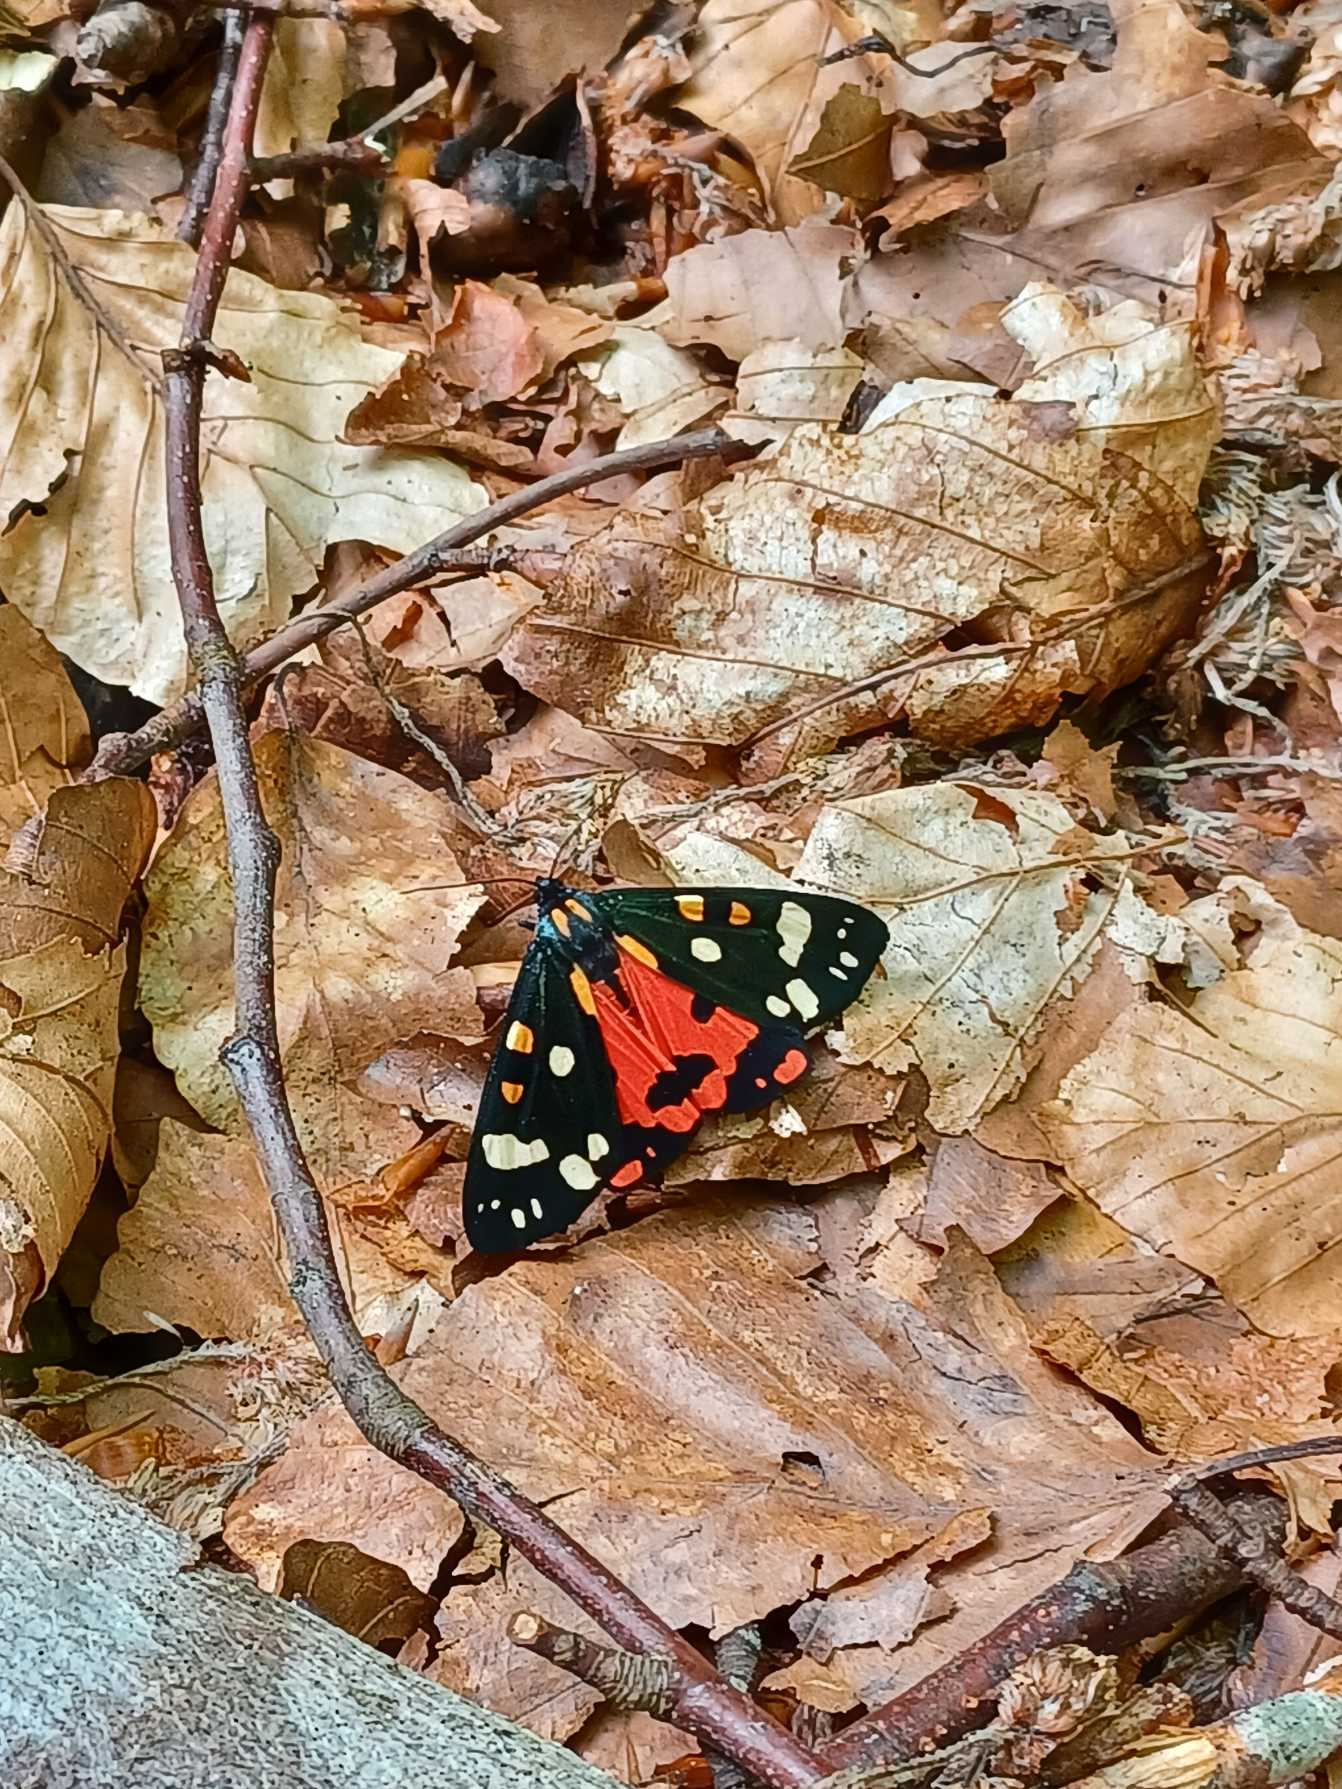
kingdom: Animalia
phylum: Arthropoda
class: Insecta
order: Lepidoptera
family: Erebidae
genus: Callimorpha
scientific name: Callimorpha dominula
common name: Jomfrubjørn
